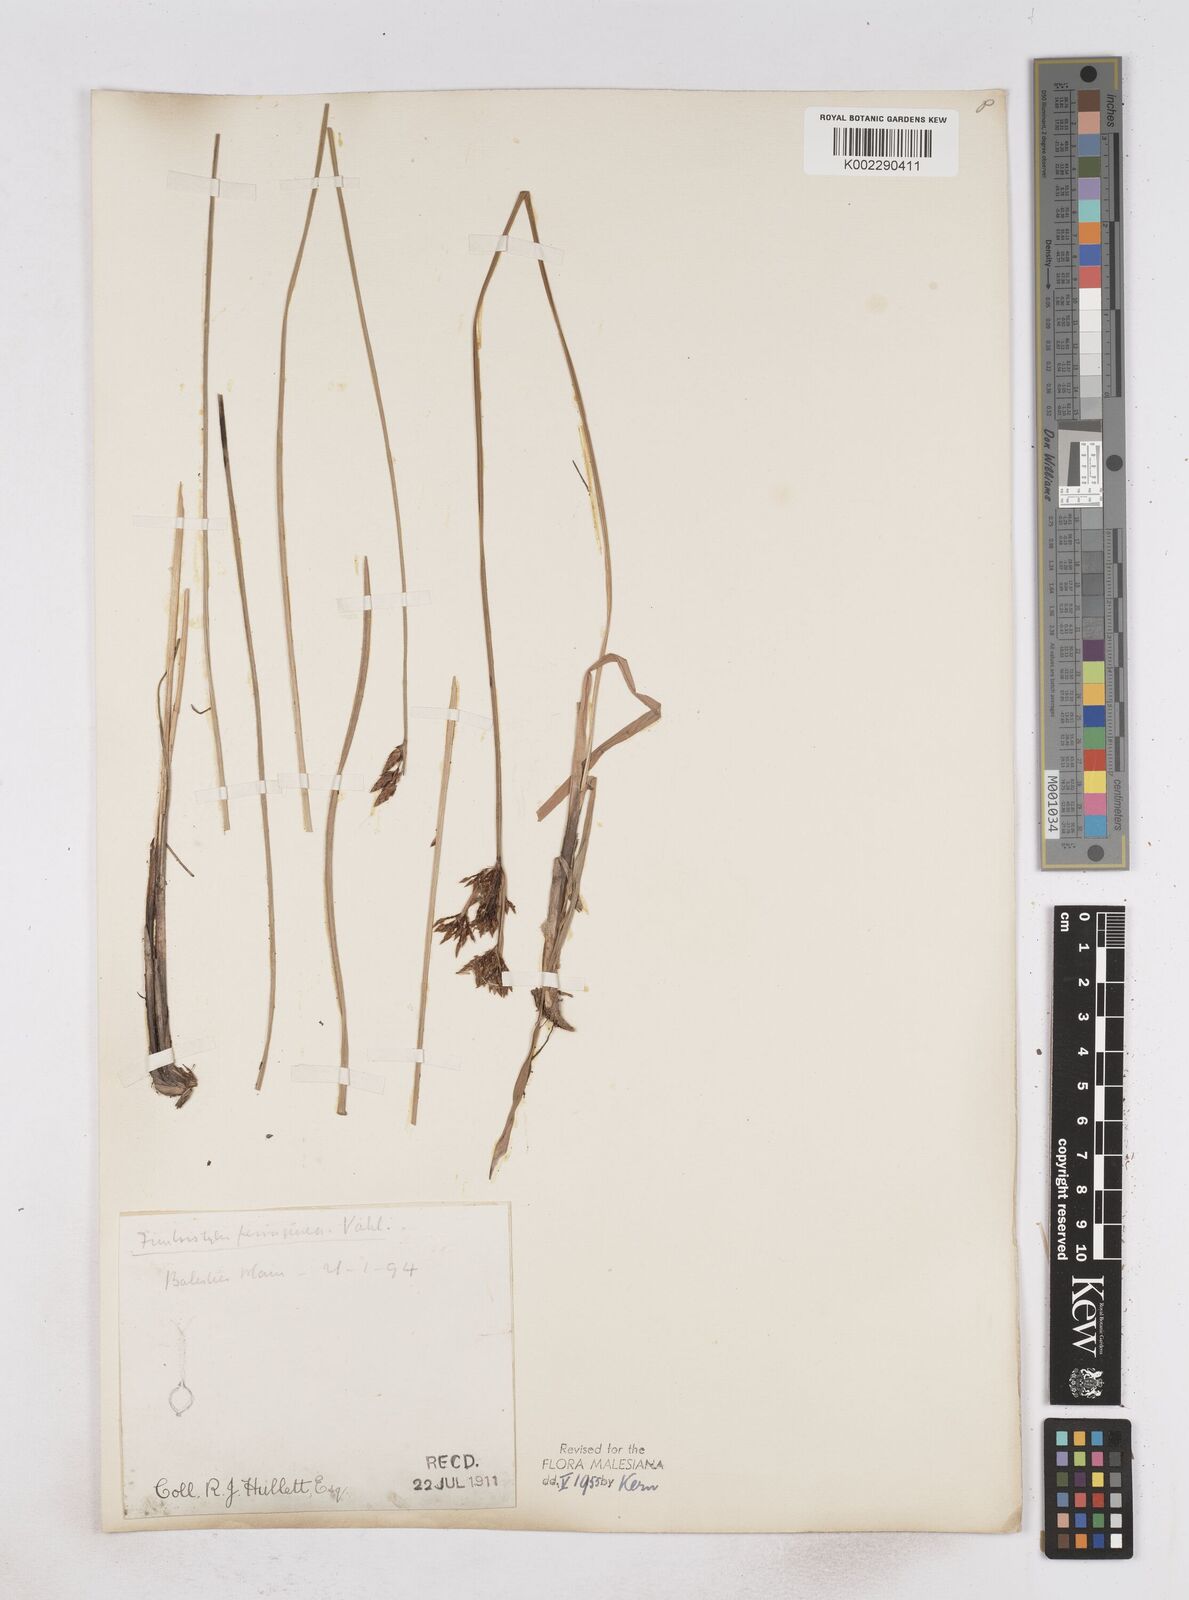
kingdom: Plantae
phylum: Tracheophyta
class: Liliopsida
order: Poales
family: Cyperaceae
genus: Fimbristylis
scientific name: Fimbristylis ferruginea
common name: West indian fimbry
